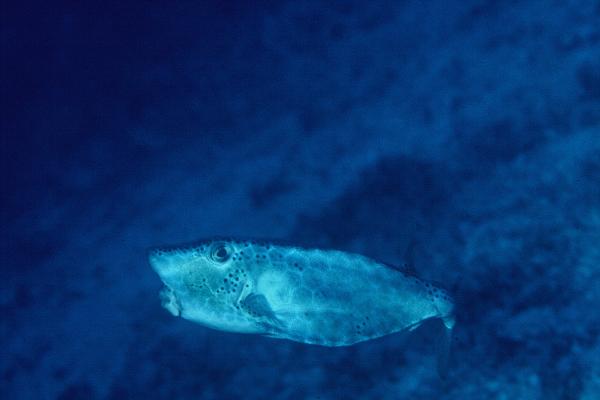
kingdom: Animalia
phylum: Chordata
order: Tetraodontiformes
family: Ostraciidae
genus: Rhynchostracion
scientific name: Rhynchostracion nasus
